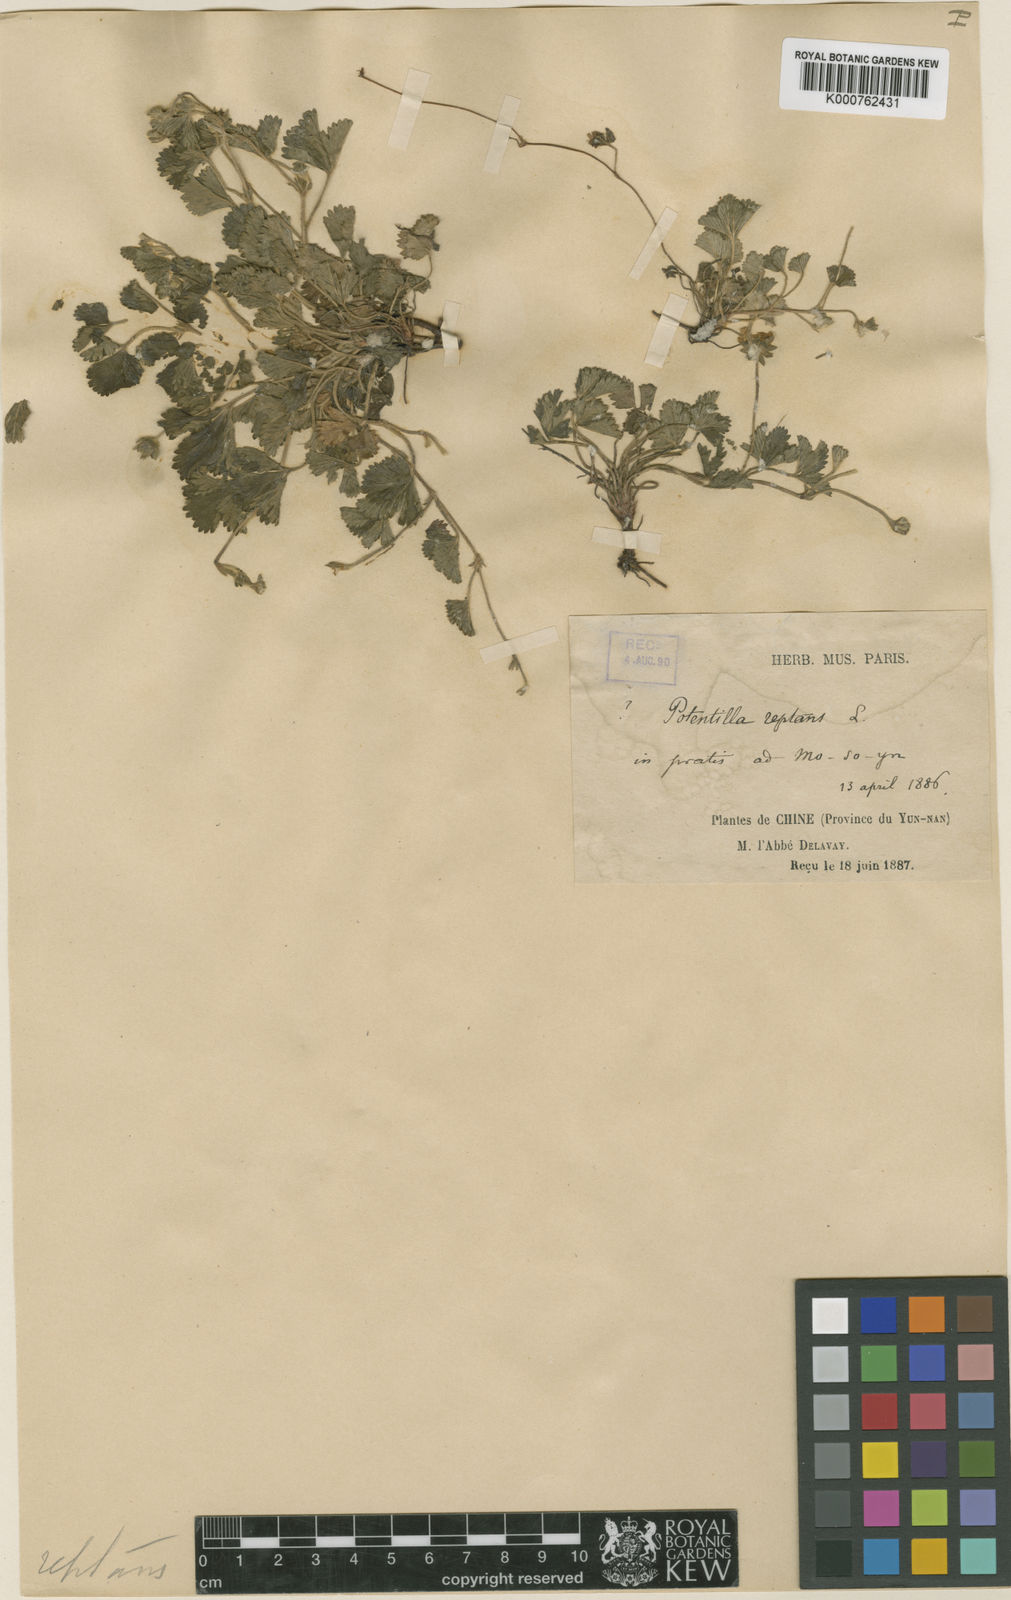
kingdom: Plantae
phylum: Tracheophyta
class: Magnoliopsida
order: Rosales
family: Rosaceae
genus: Potentilla
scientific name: Potentilla reptans
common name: Creeping cinquefoil
